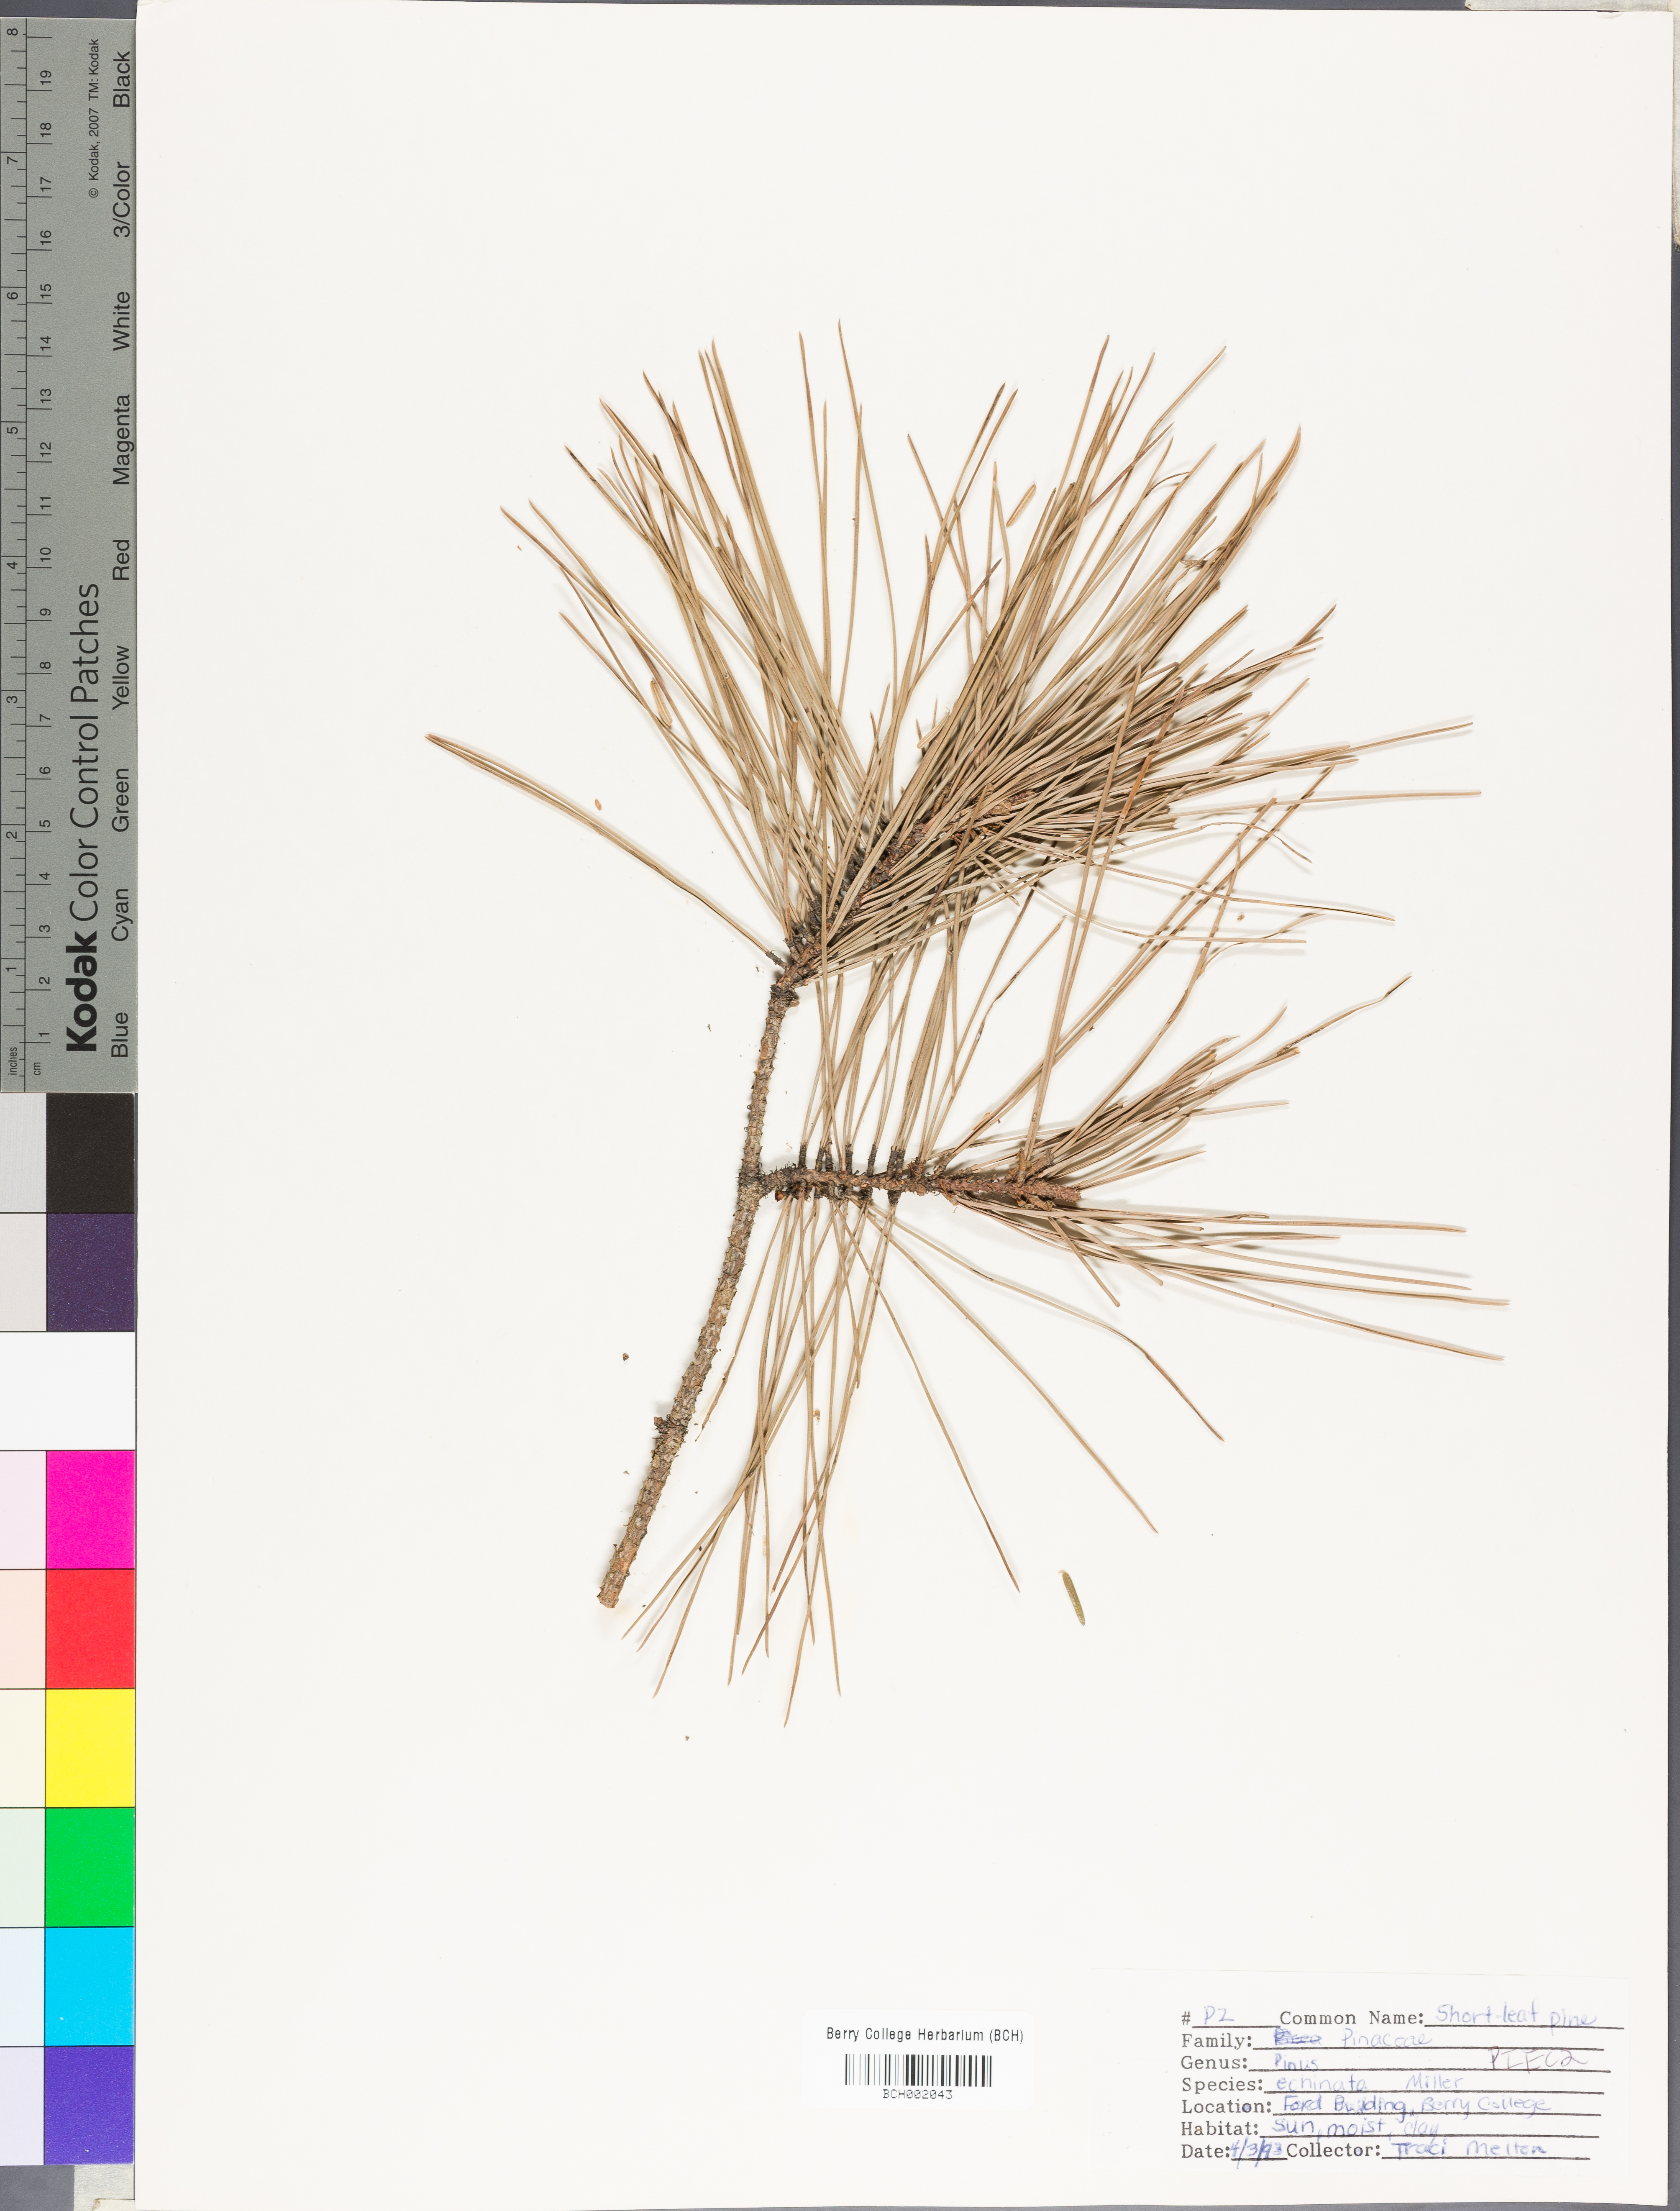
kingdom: Plantae
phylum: Tracheophyta
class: Pinopsida
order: Pinales
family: Pinaceae
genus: Pinus
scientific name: Pinus echinata
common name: Shortleaf pine
